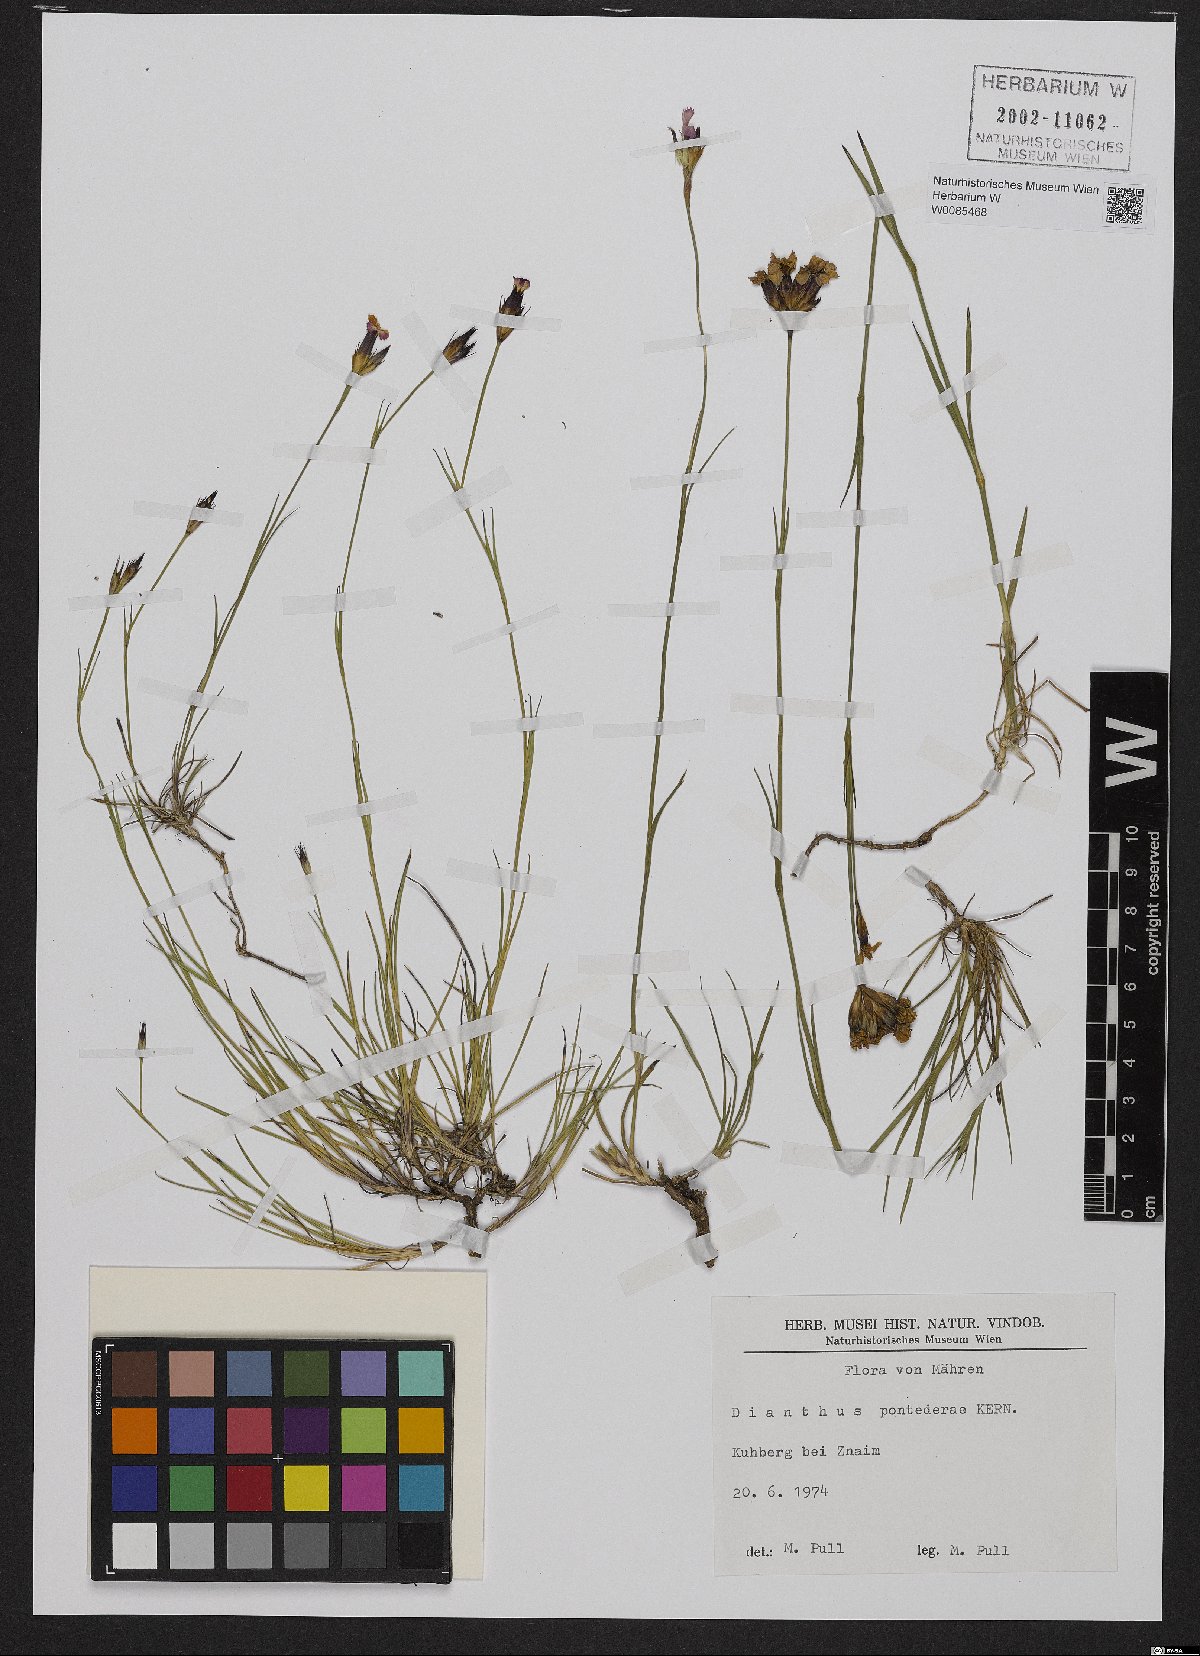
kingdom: Plantae
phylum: Tracheophyta
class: Magnoliopsida
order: Caryophyllales
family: Caryophyllaceae
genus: Dianthus
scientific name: Dianthus pontederae
